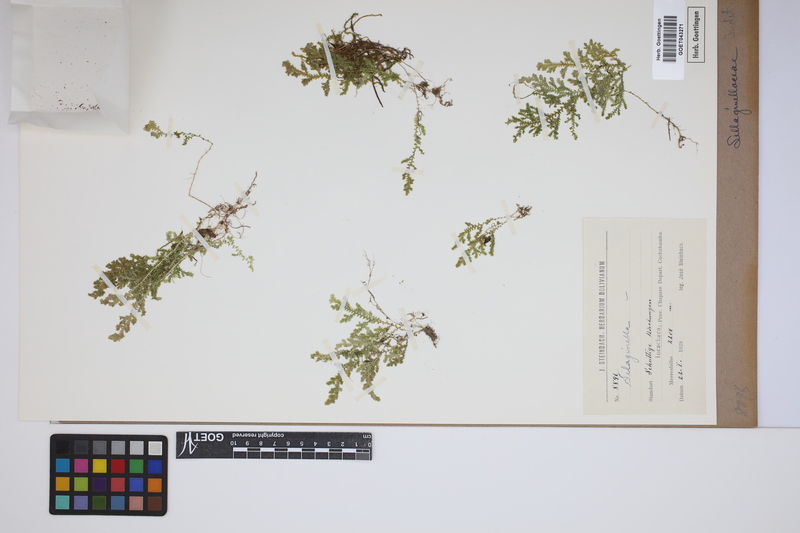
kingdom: Plantae
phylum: Tracheophyta
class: Lycopodiopsida
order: Selaginellales
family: Selaginellaceae
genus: Selaginella
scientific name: Selaginella
